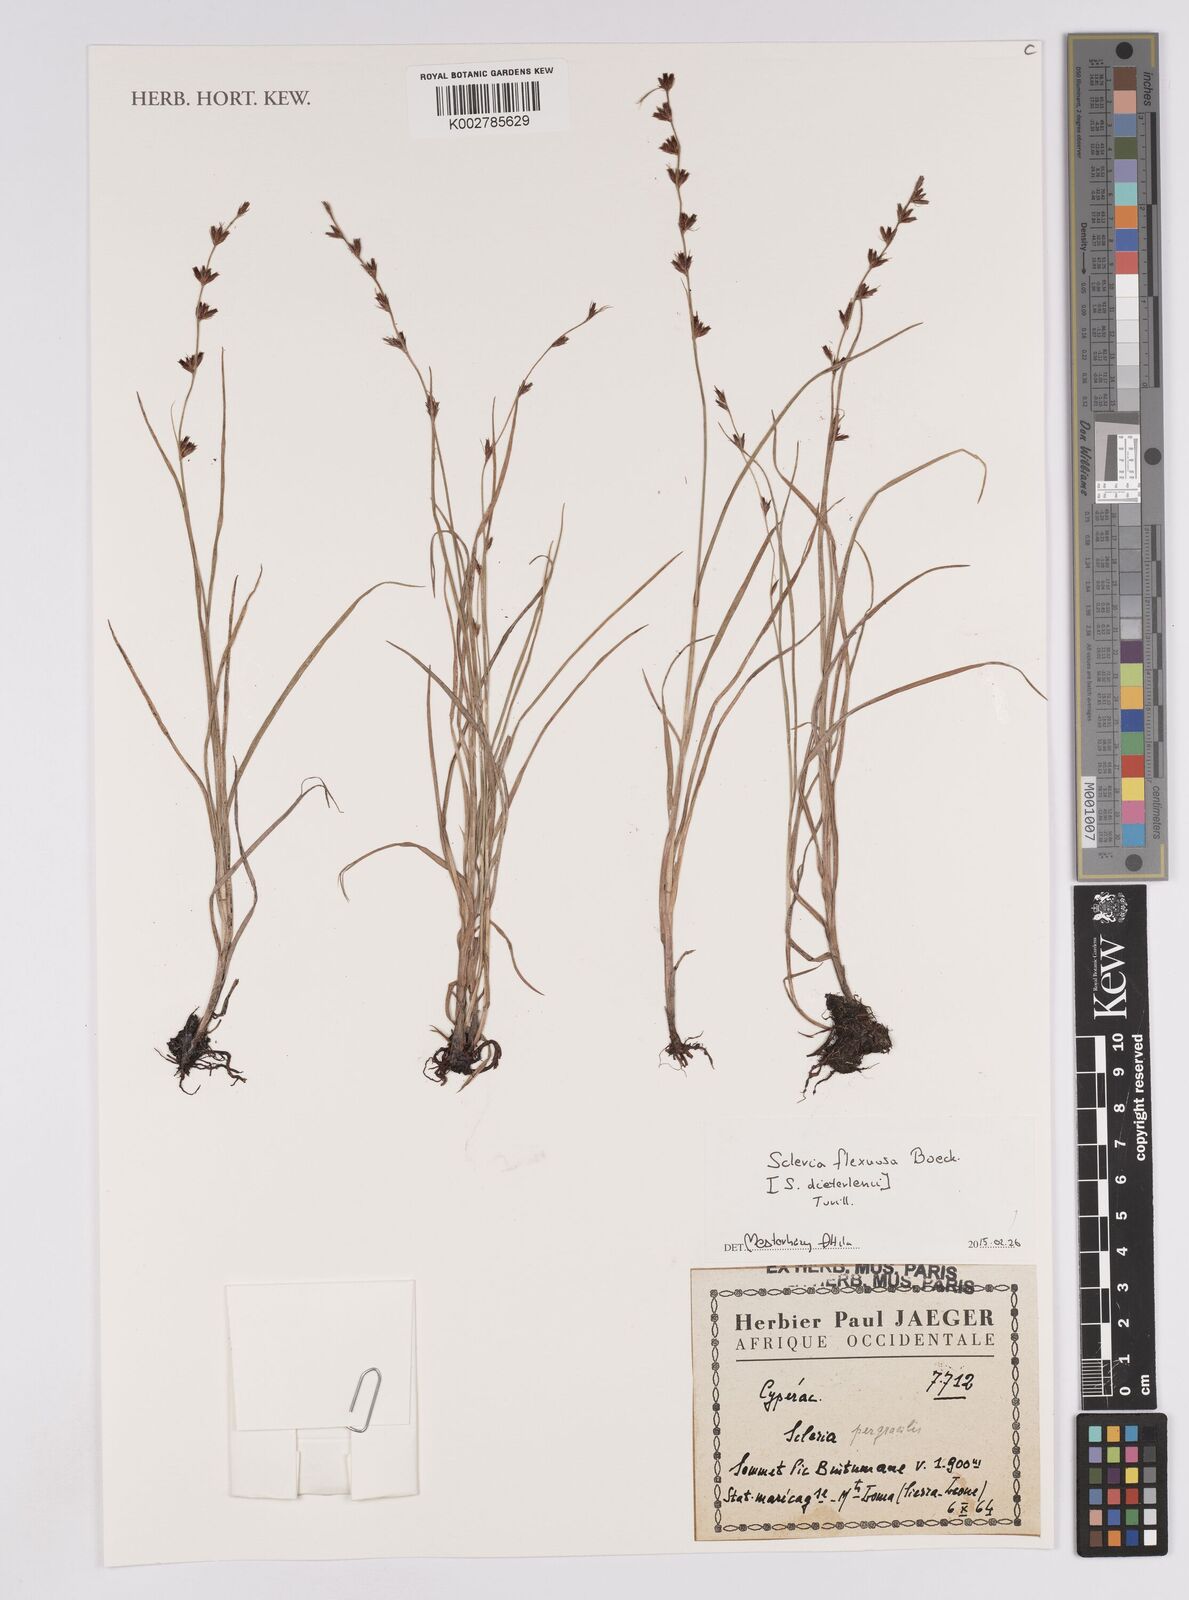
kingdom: Plantae
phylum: Tracheophyta
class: Liliopsida
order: Poales
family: Cyperaceae
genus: Scleria
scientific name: Scleria flexuosa
